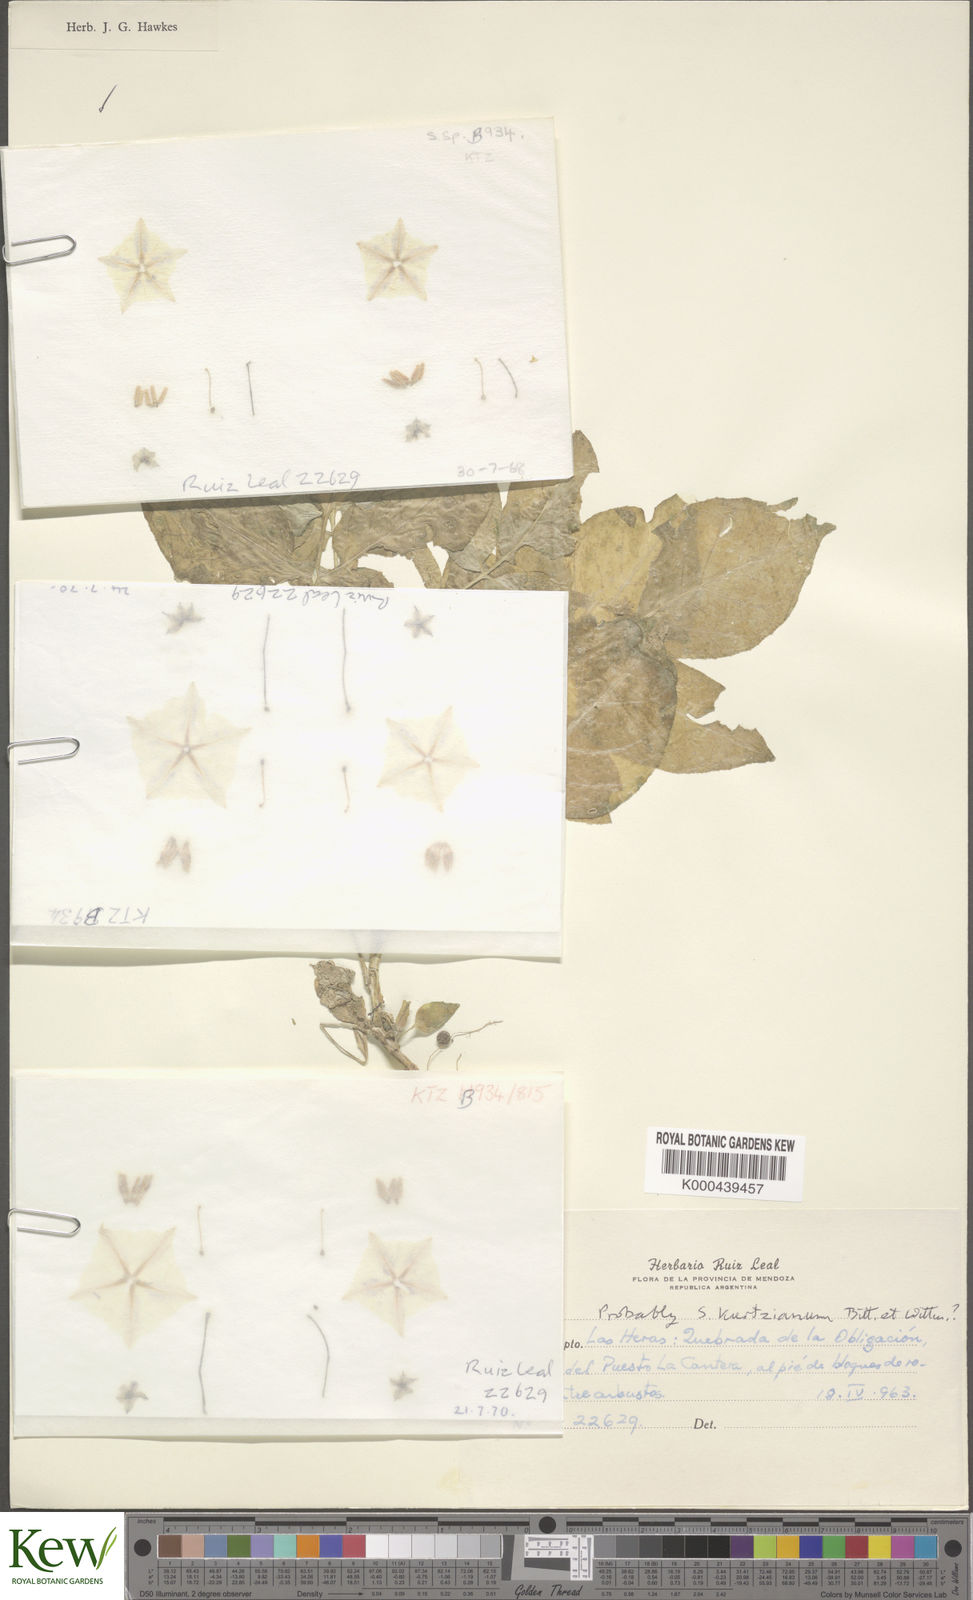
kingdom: Plantae
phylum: Tracheophyta
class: Magnoliopsida
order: Solanales
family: Solanaceae
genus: Solanum
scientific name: Solanum kurtzianum
